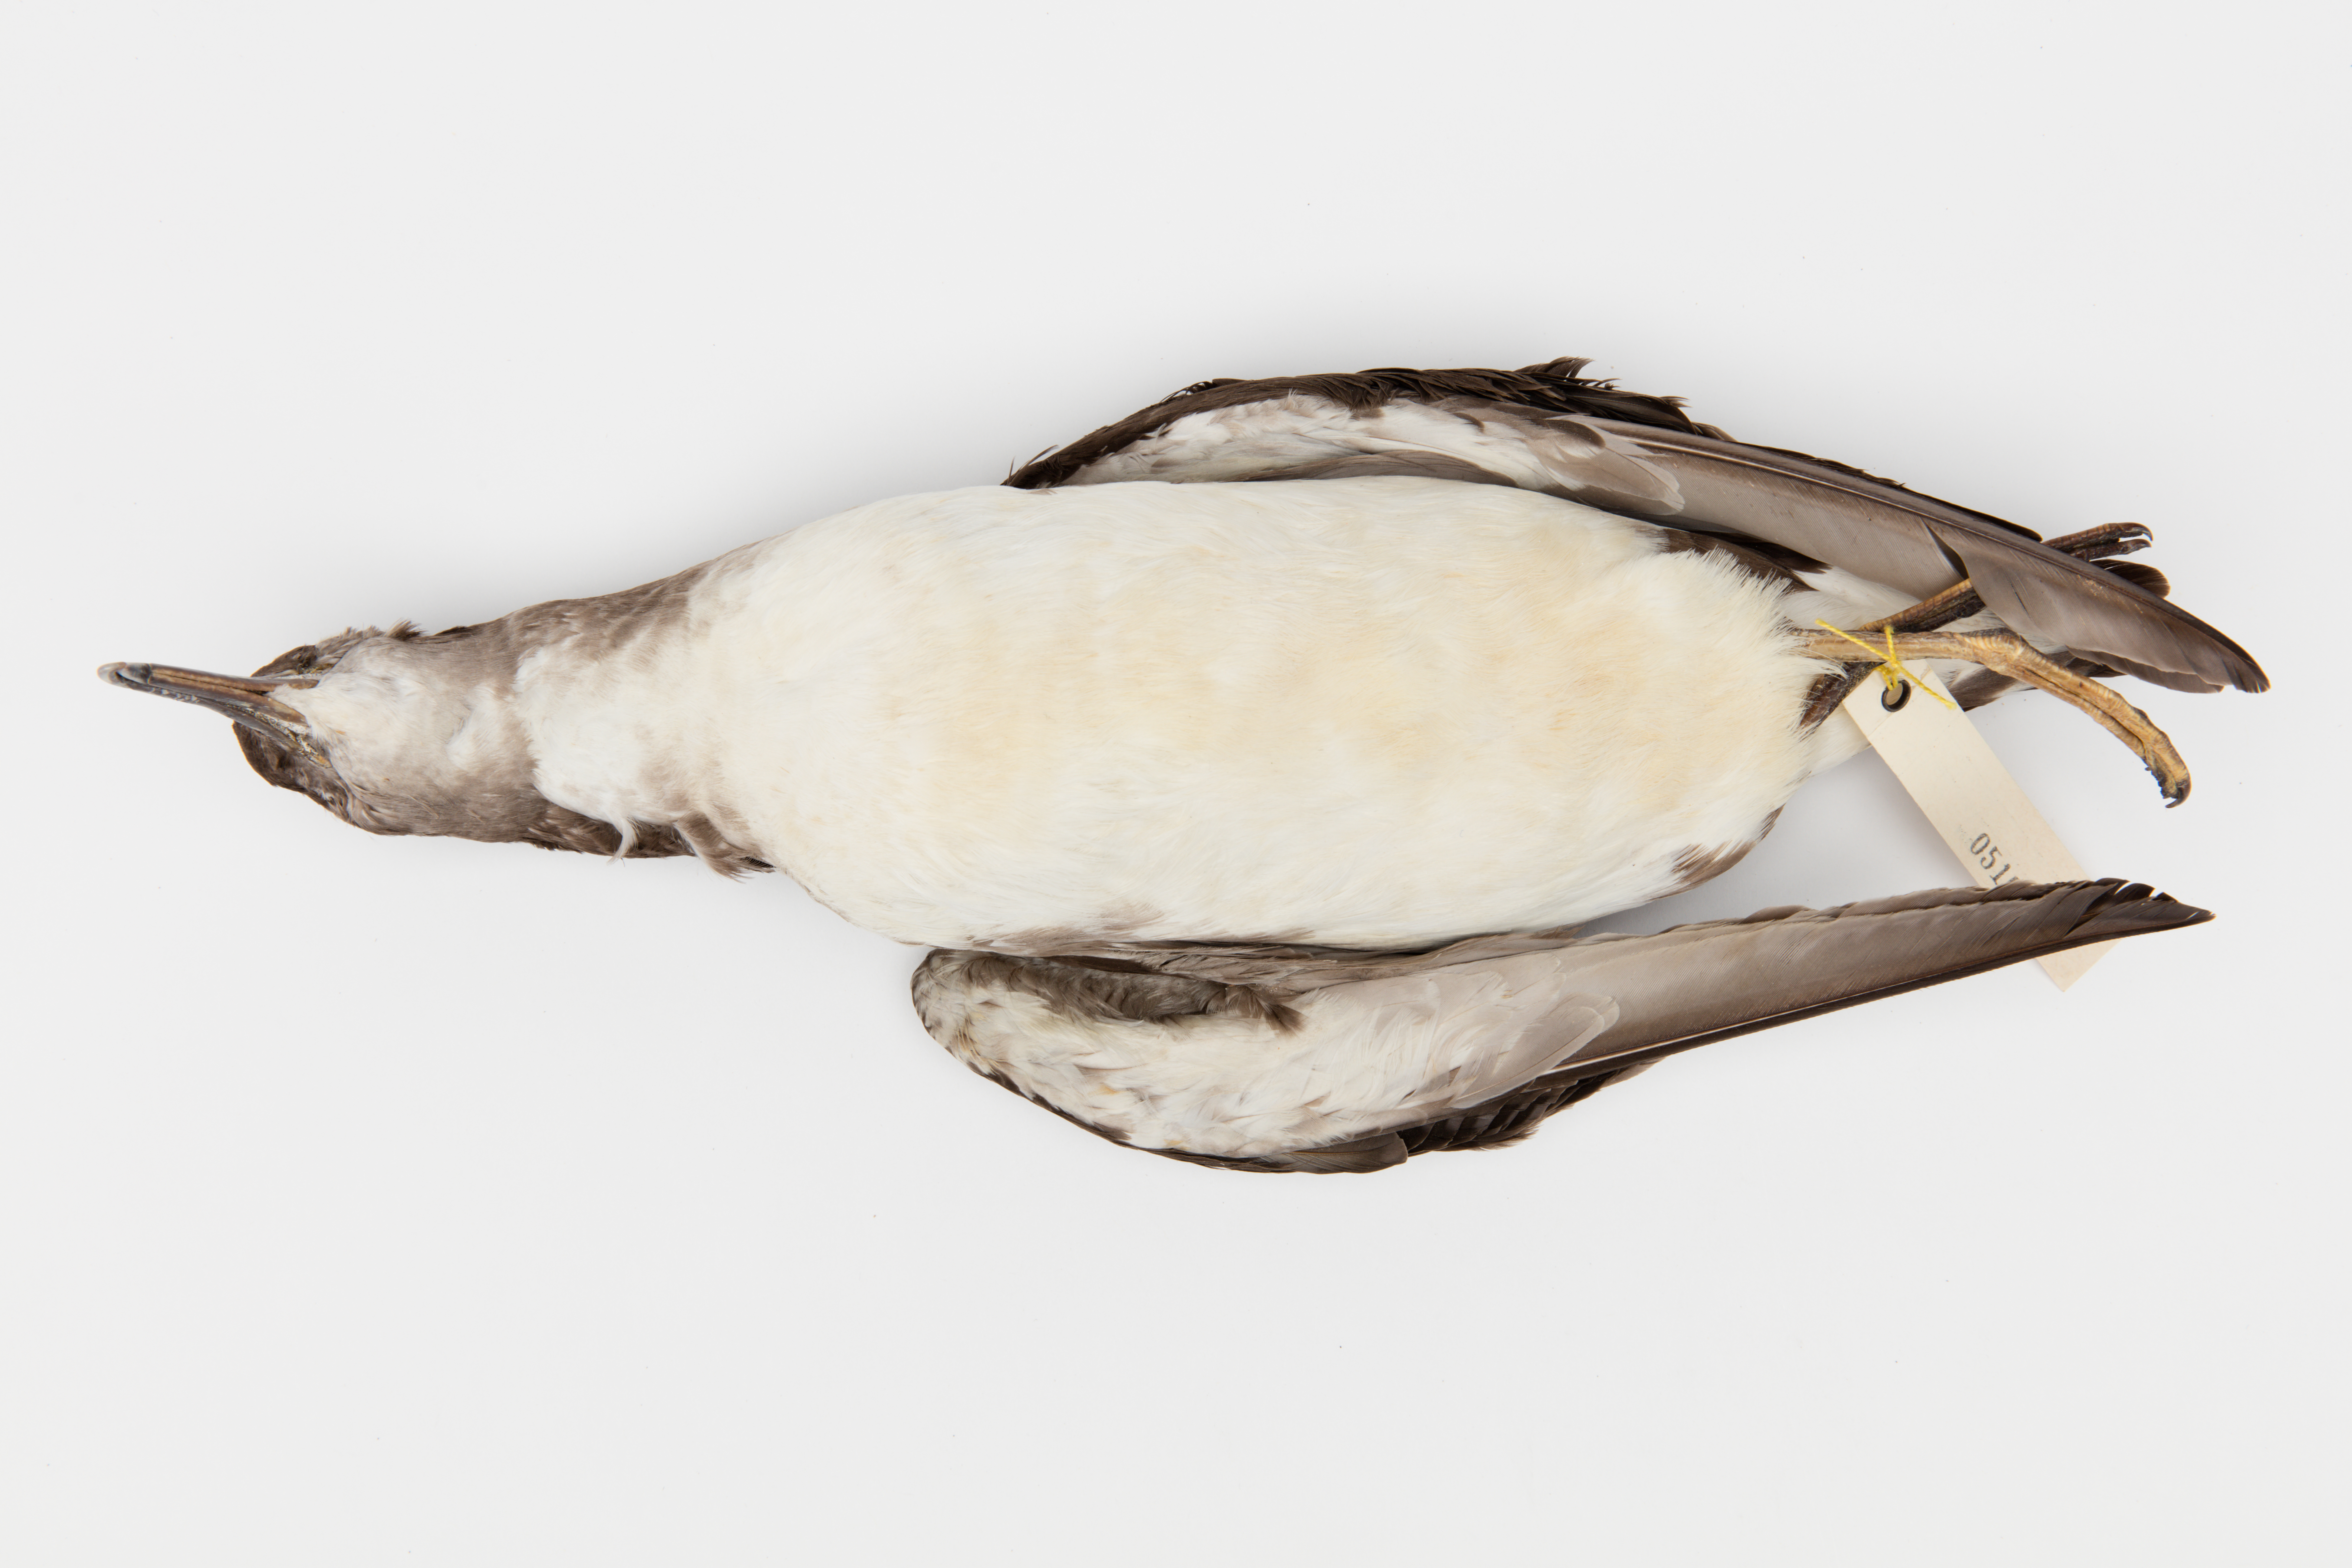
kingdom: Animalia
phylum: Chordata
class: Aves
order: Procellariiformes
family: Procellariidae
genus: Puffinus
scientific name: Puffinus huttoni
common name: Hutton's shearwater
